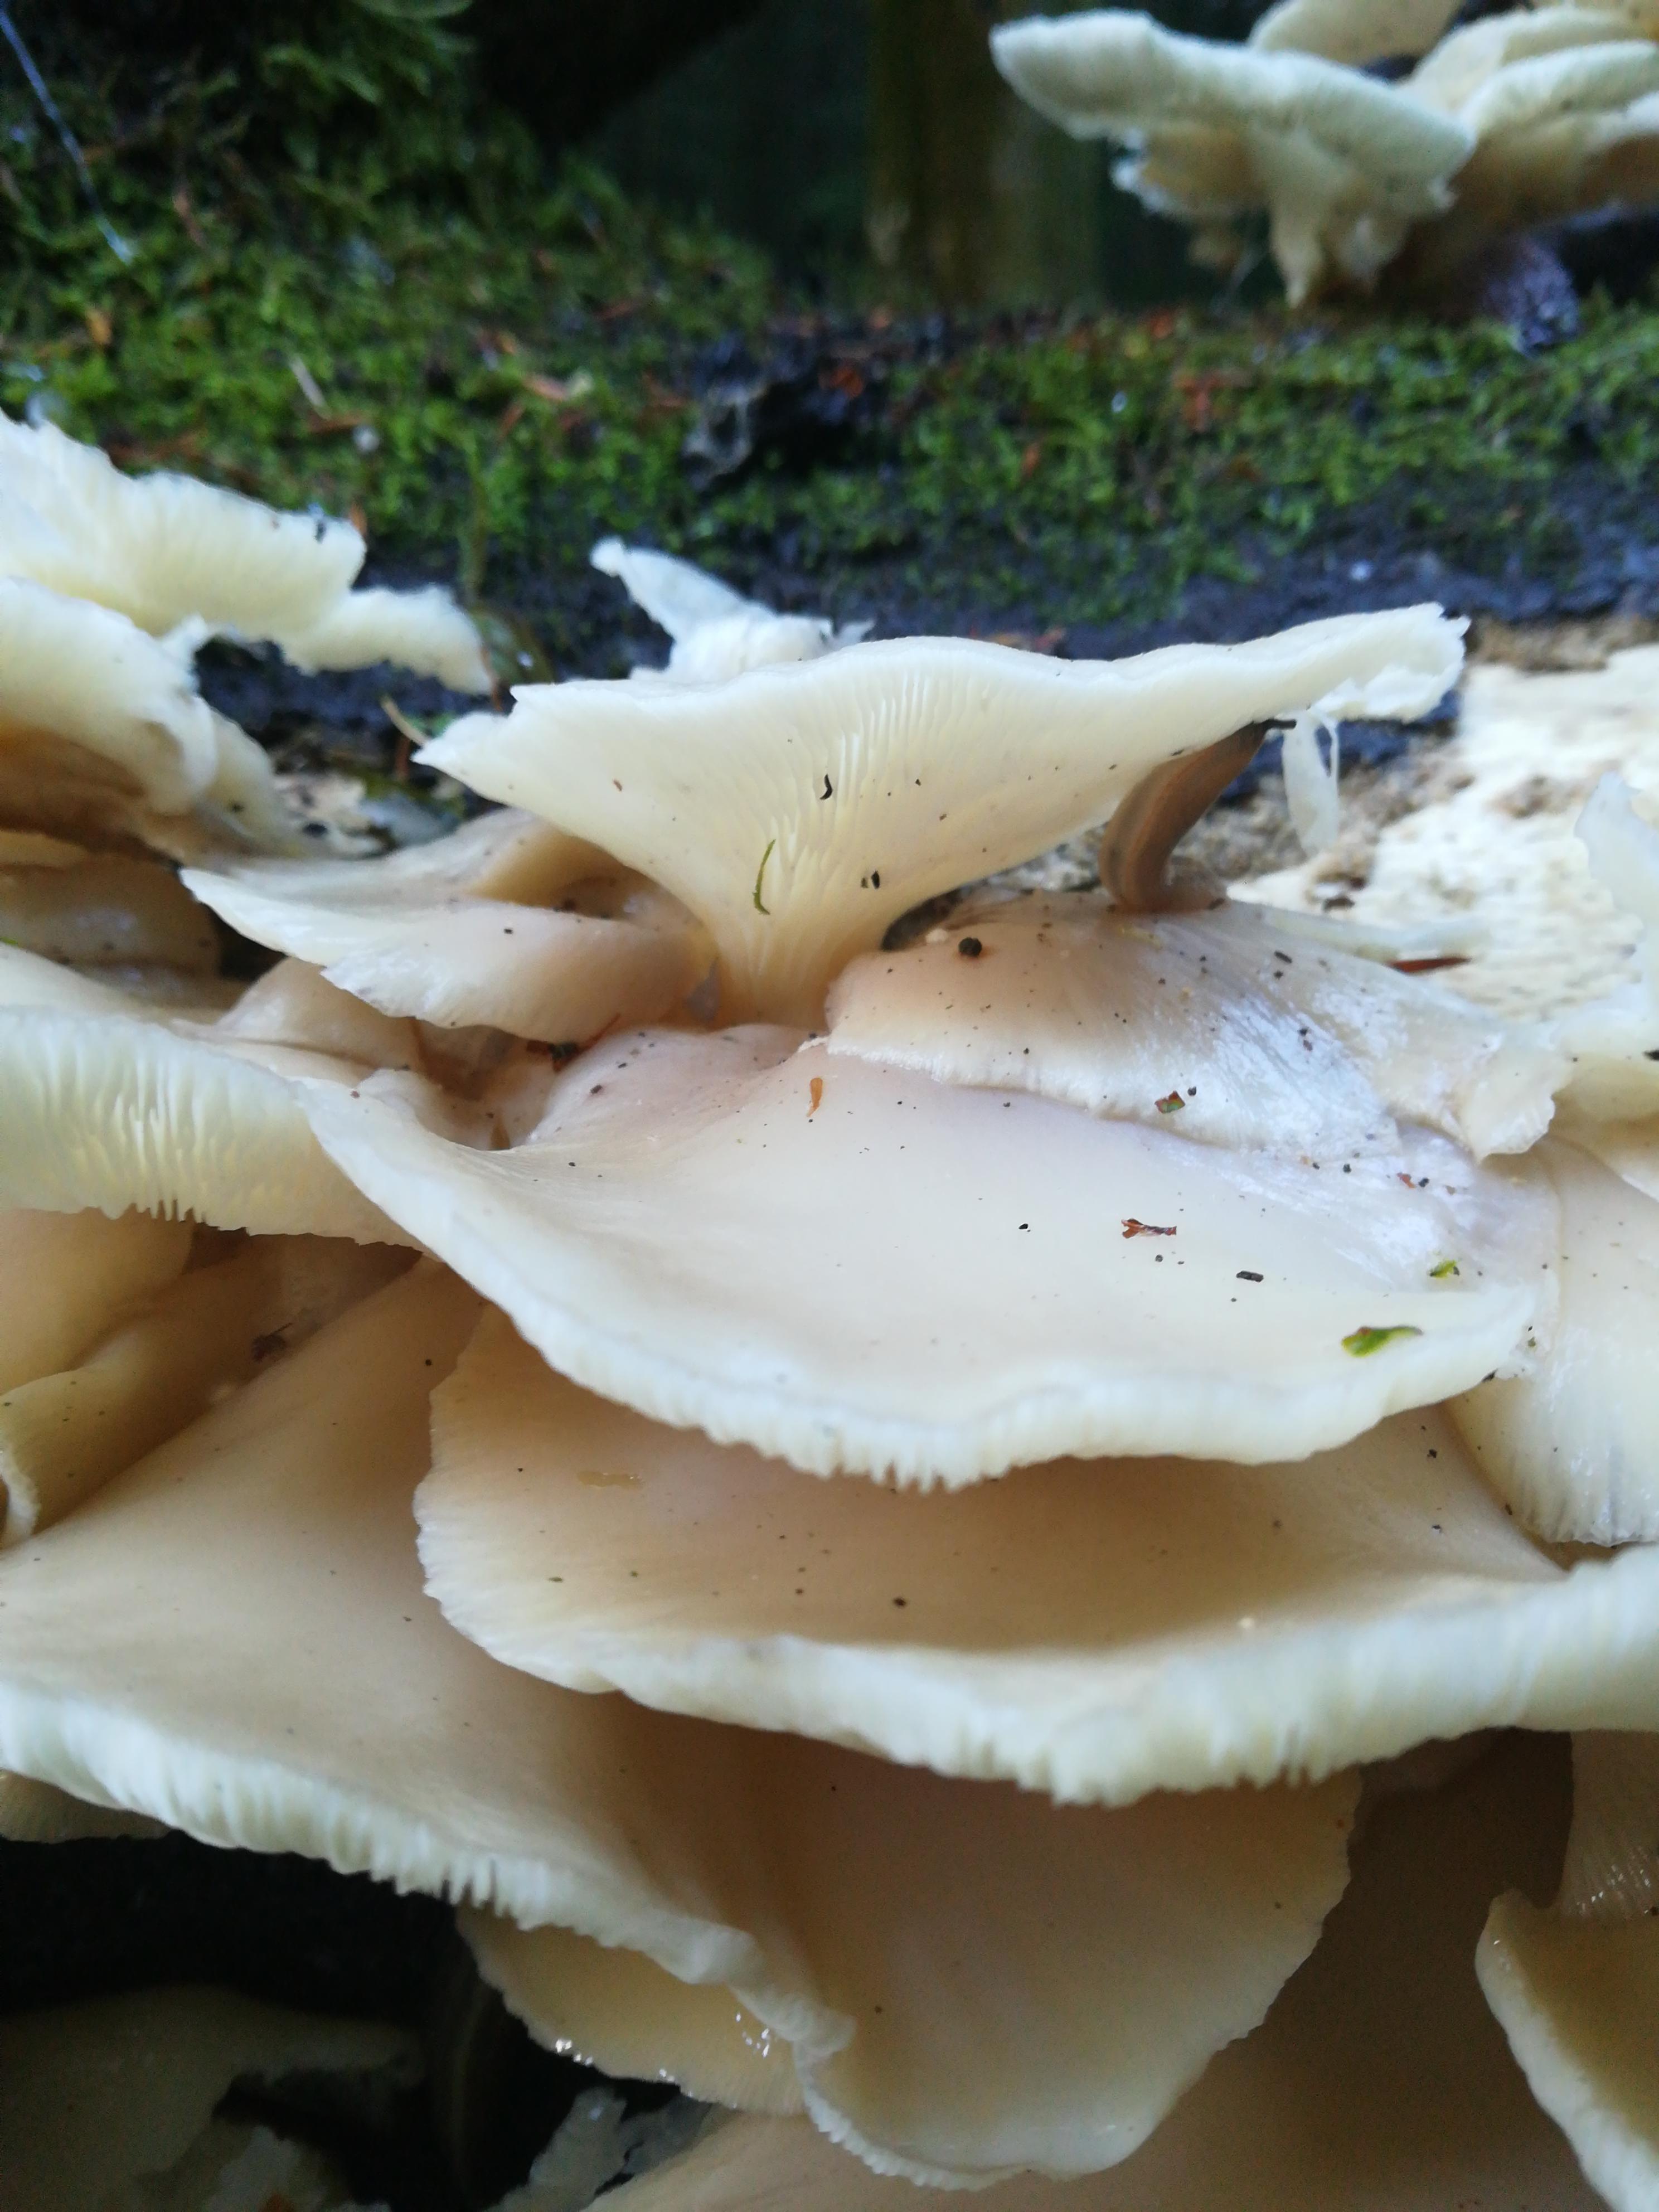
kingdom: Fungi
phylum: Basidiomycota
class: Agaricomycetes
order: Agaricales
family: Pleurotaceae
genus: Pleurotus
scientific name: Pleurotus pulmonarius
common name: sommer-østershat
